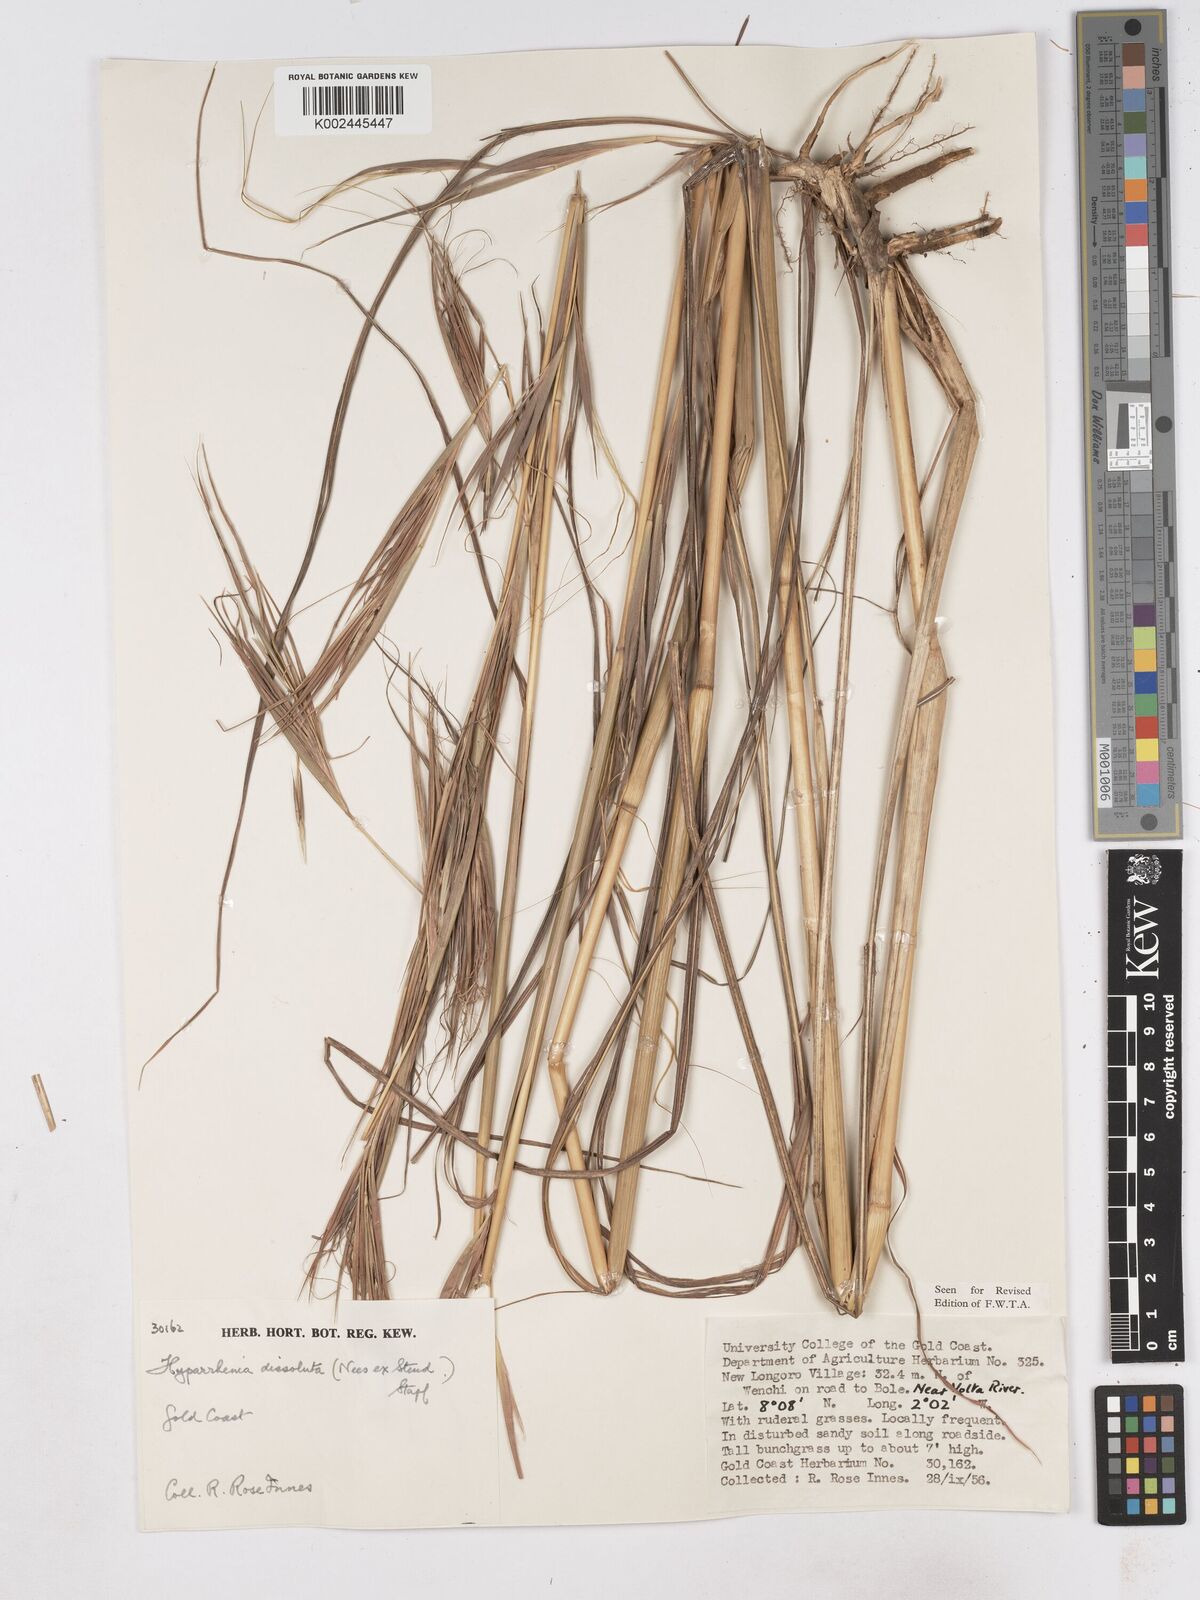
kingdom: Plantae
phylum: Tracheophyta
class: Liliopsida
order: Poales
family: Poaceae
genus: Hyperthelia
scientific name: Hyperthelia dissoluta
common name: Yellow thatching grass
